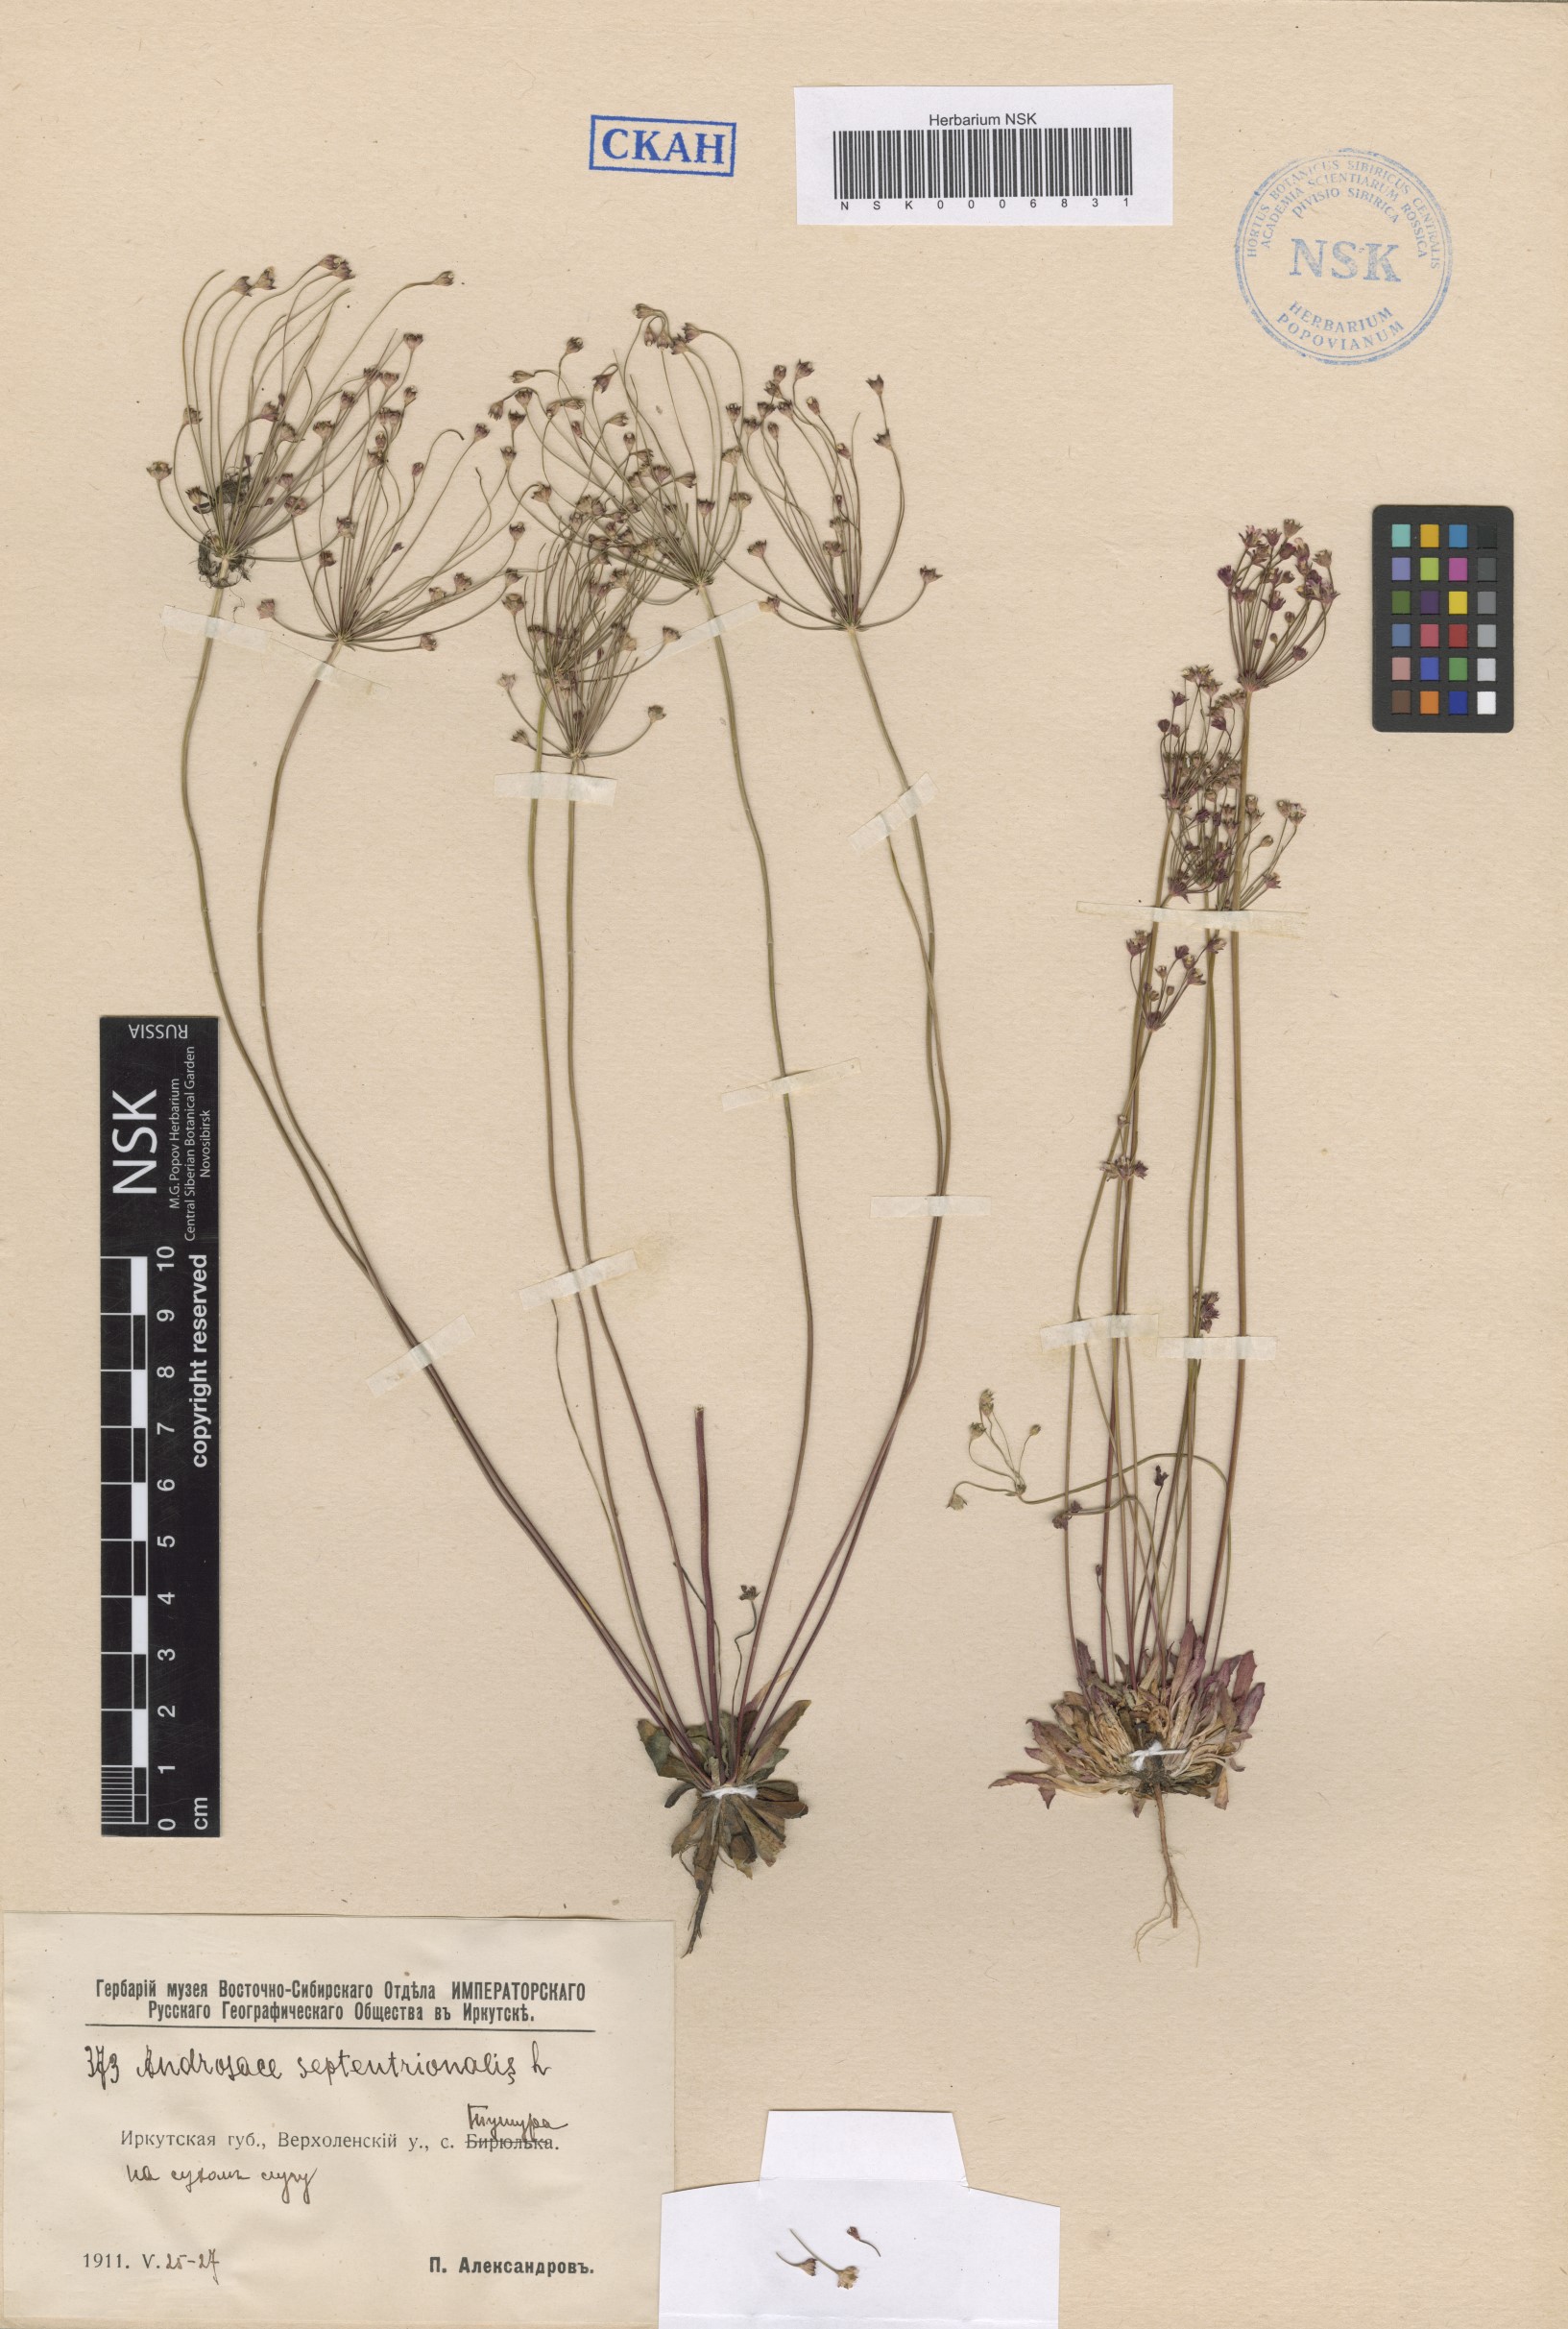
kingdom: Plantae
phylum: Tracheophyta
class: Magnoliopsida
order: Ericales
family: Primulaceae
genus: Androsace
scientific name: Androsace septentrionalis
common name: Hairy northern fairy-candelabra
